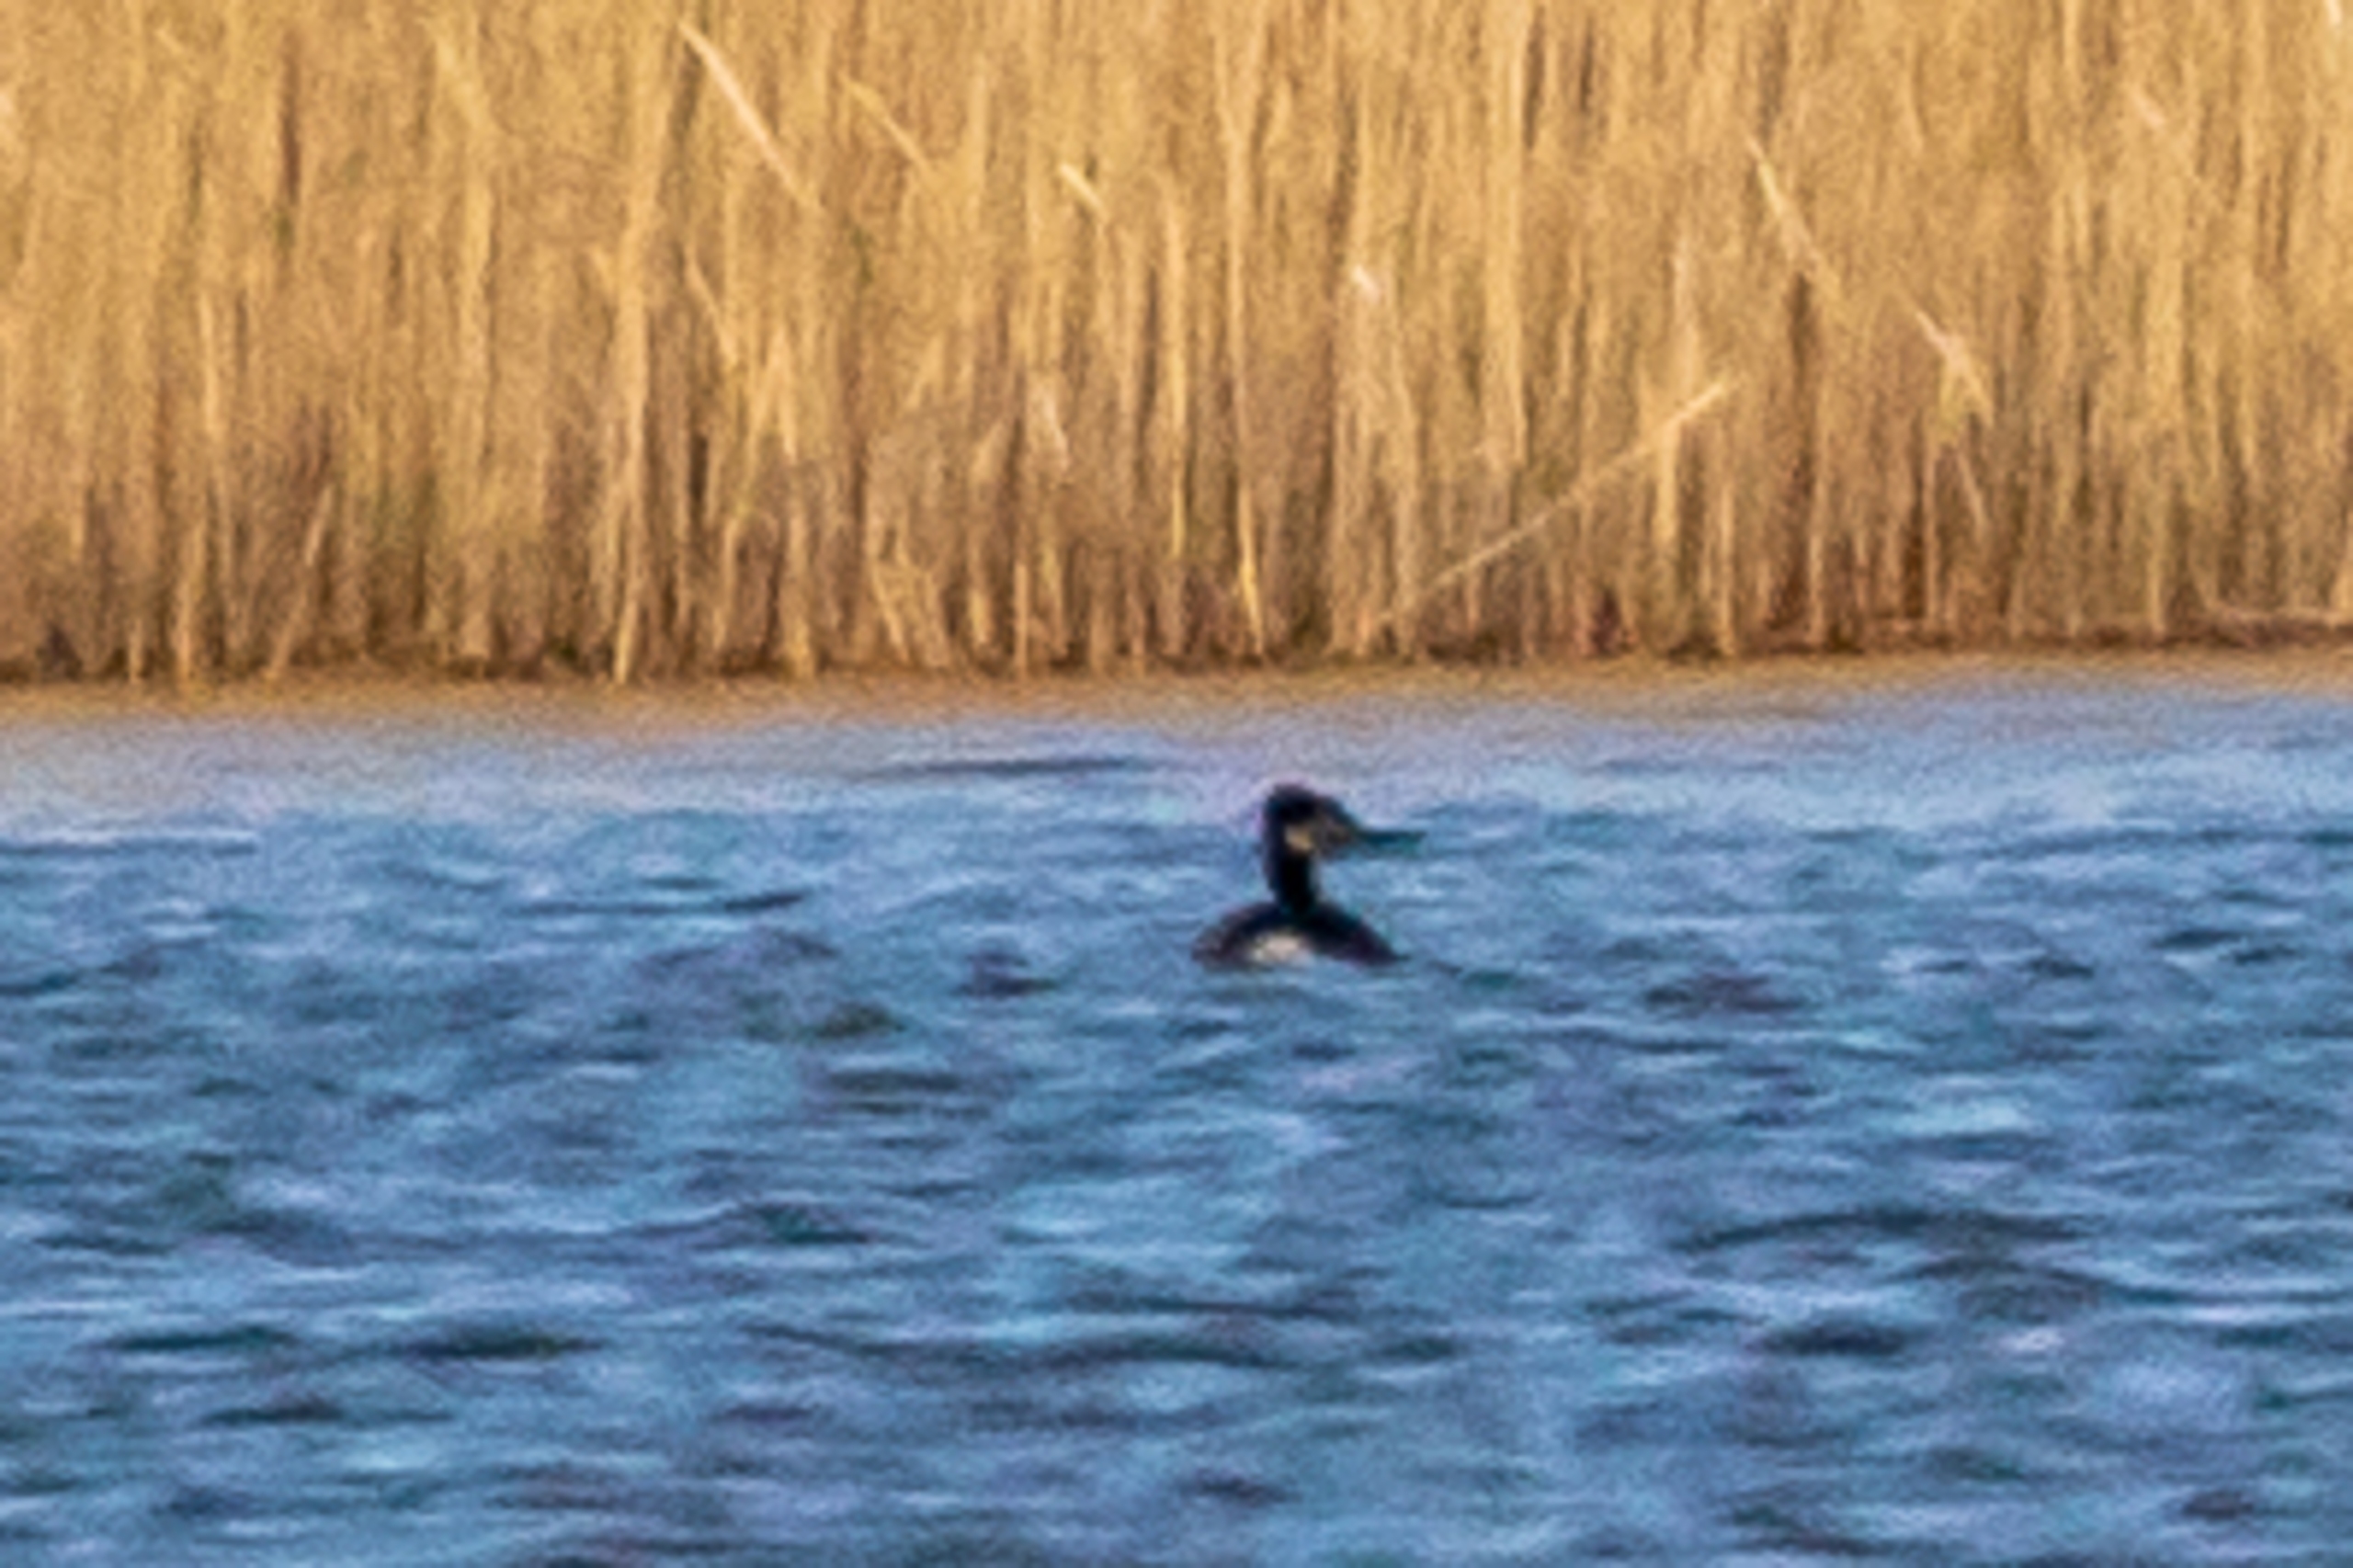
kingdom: Animalia
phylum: Chordata
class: Aves
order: Podicipediformes
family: Podicipedidae
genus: Podiceps
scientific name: Podiceps grisegena
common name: Gråstrubet lappedykker
